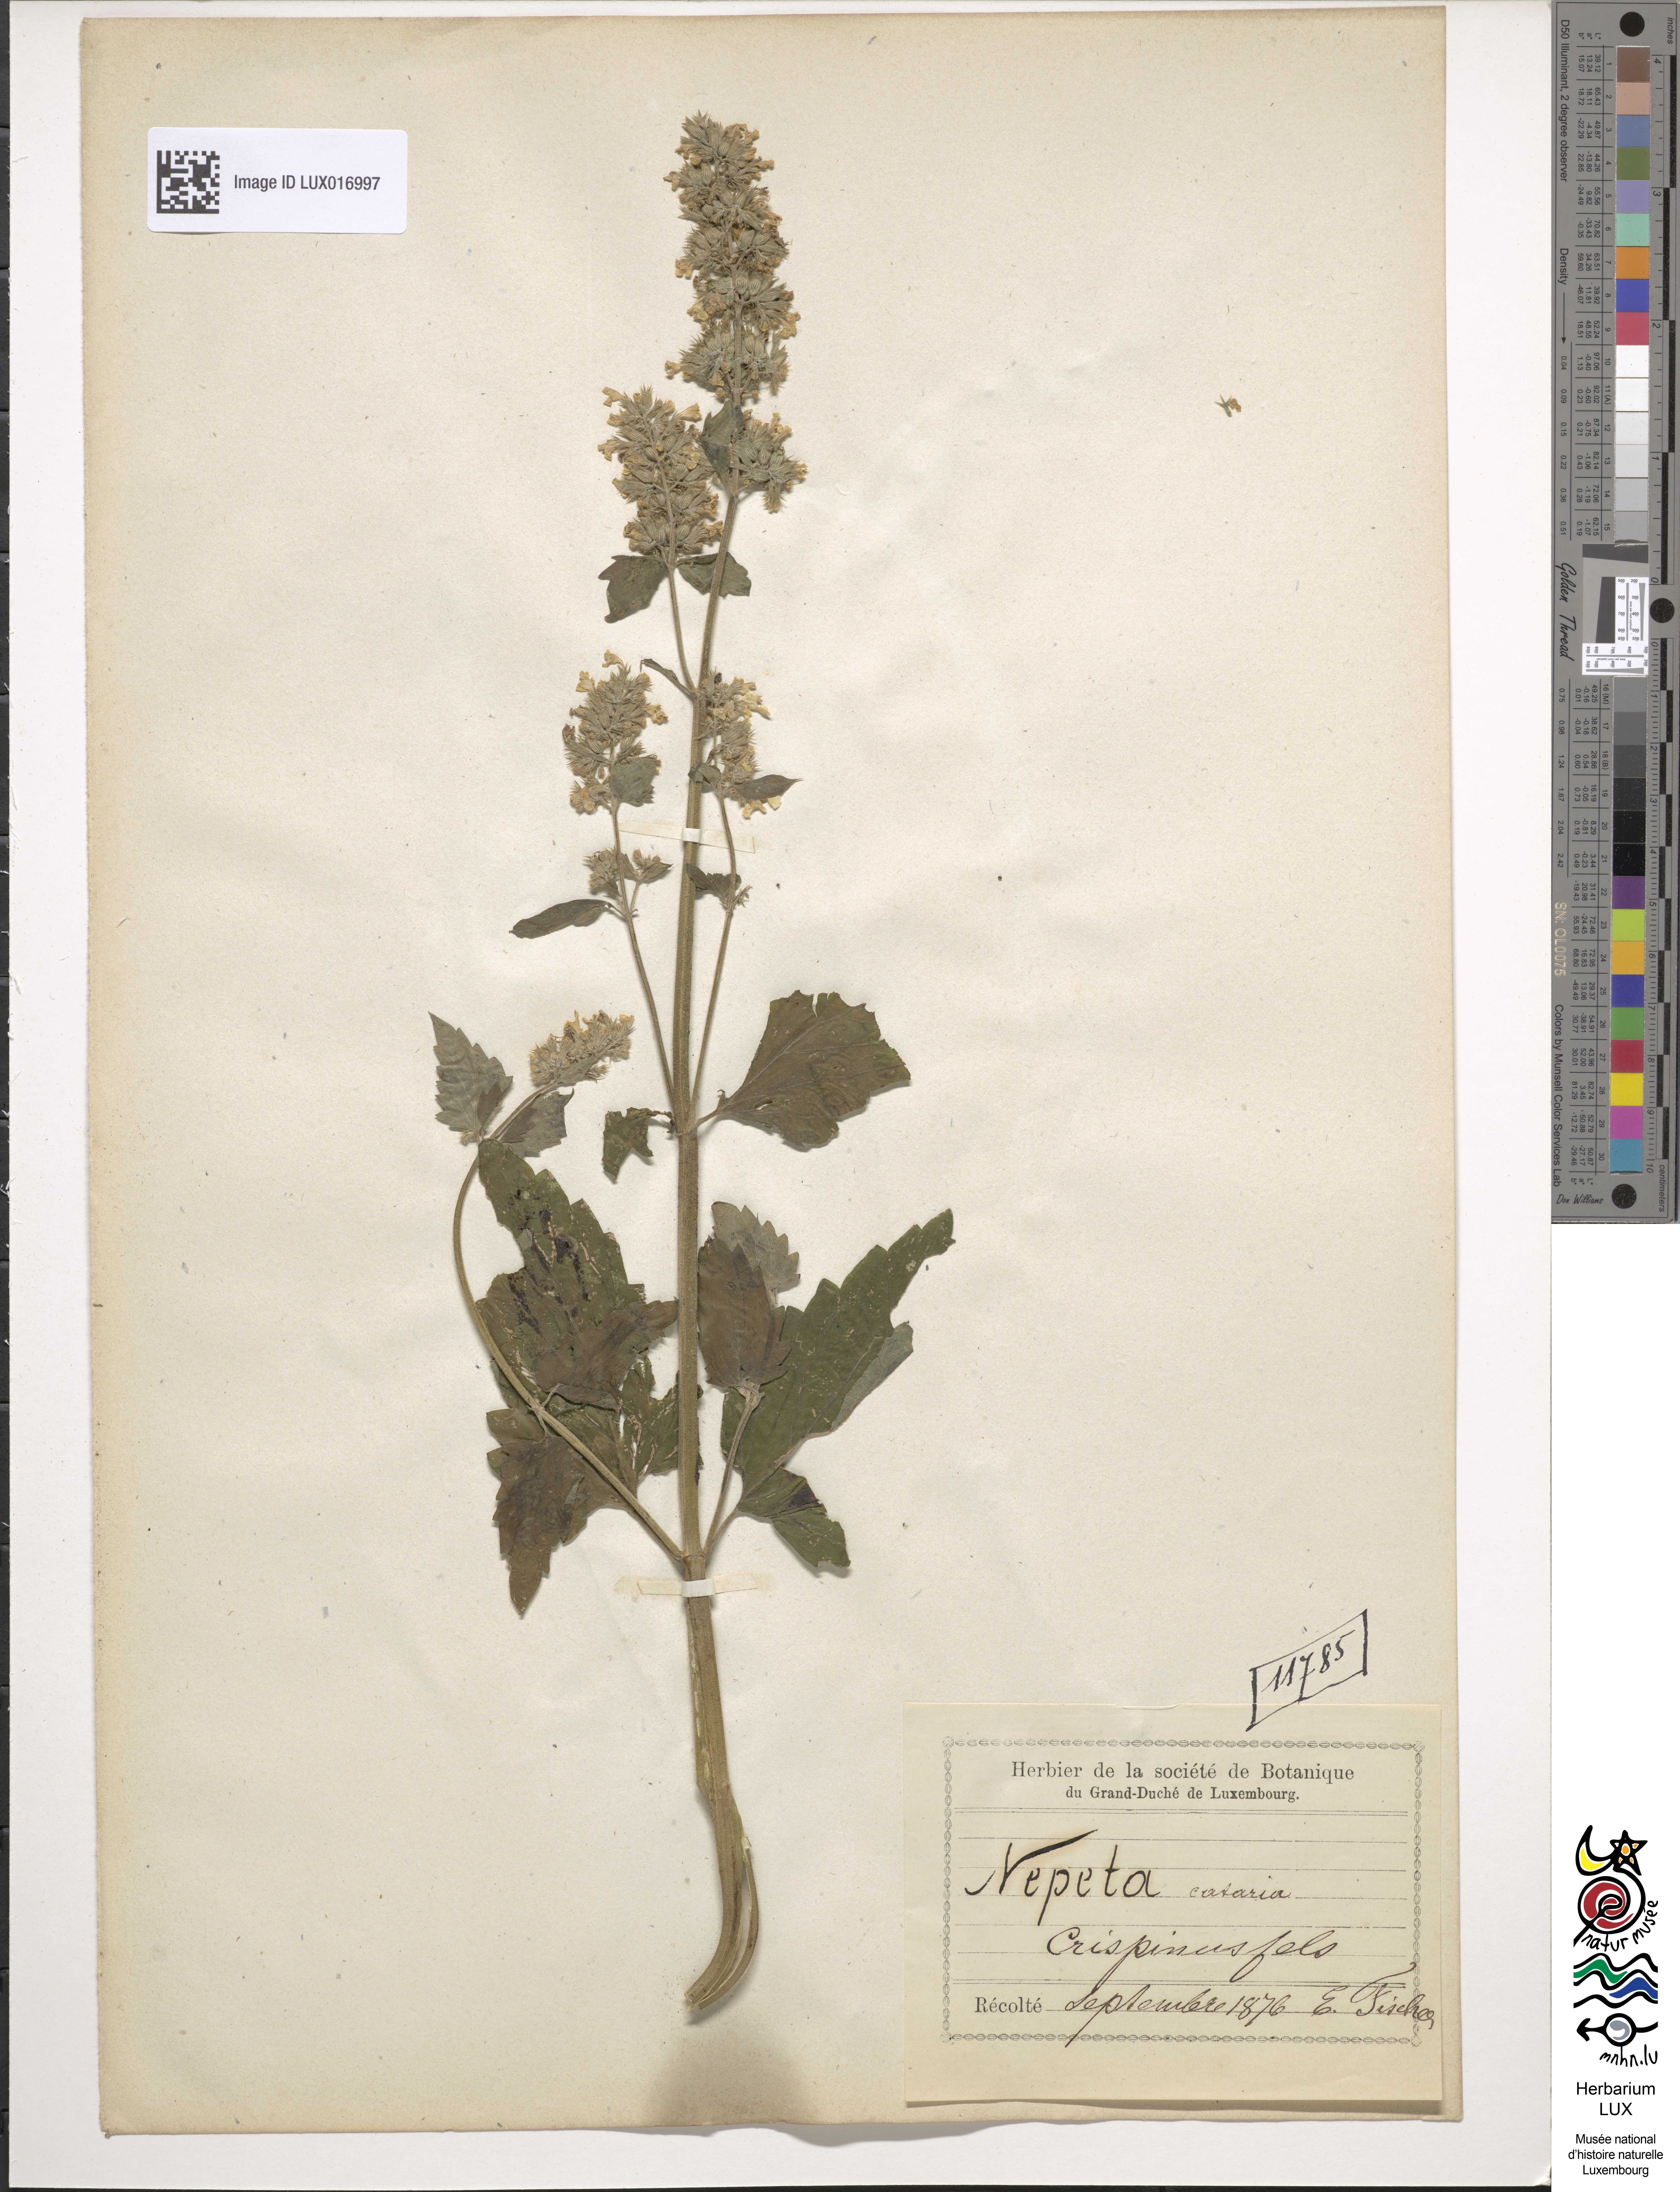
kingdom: Plantae
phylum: Tracheophyta
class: Magnoliopsida
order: Lamiales
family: Lamiaceae
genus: Nepeta
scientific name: Nepeta cataria
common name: Catnip
